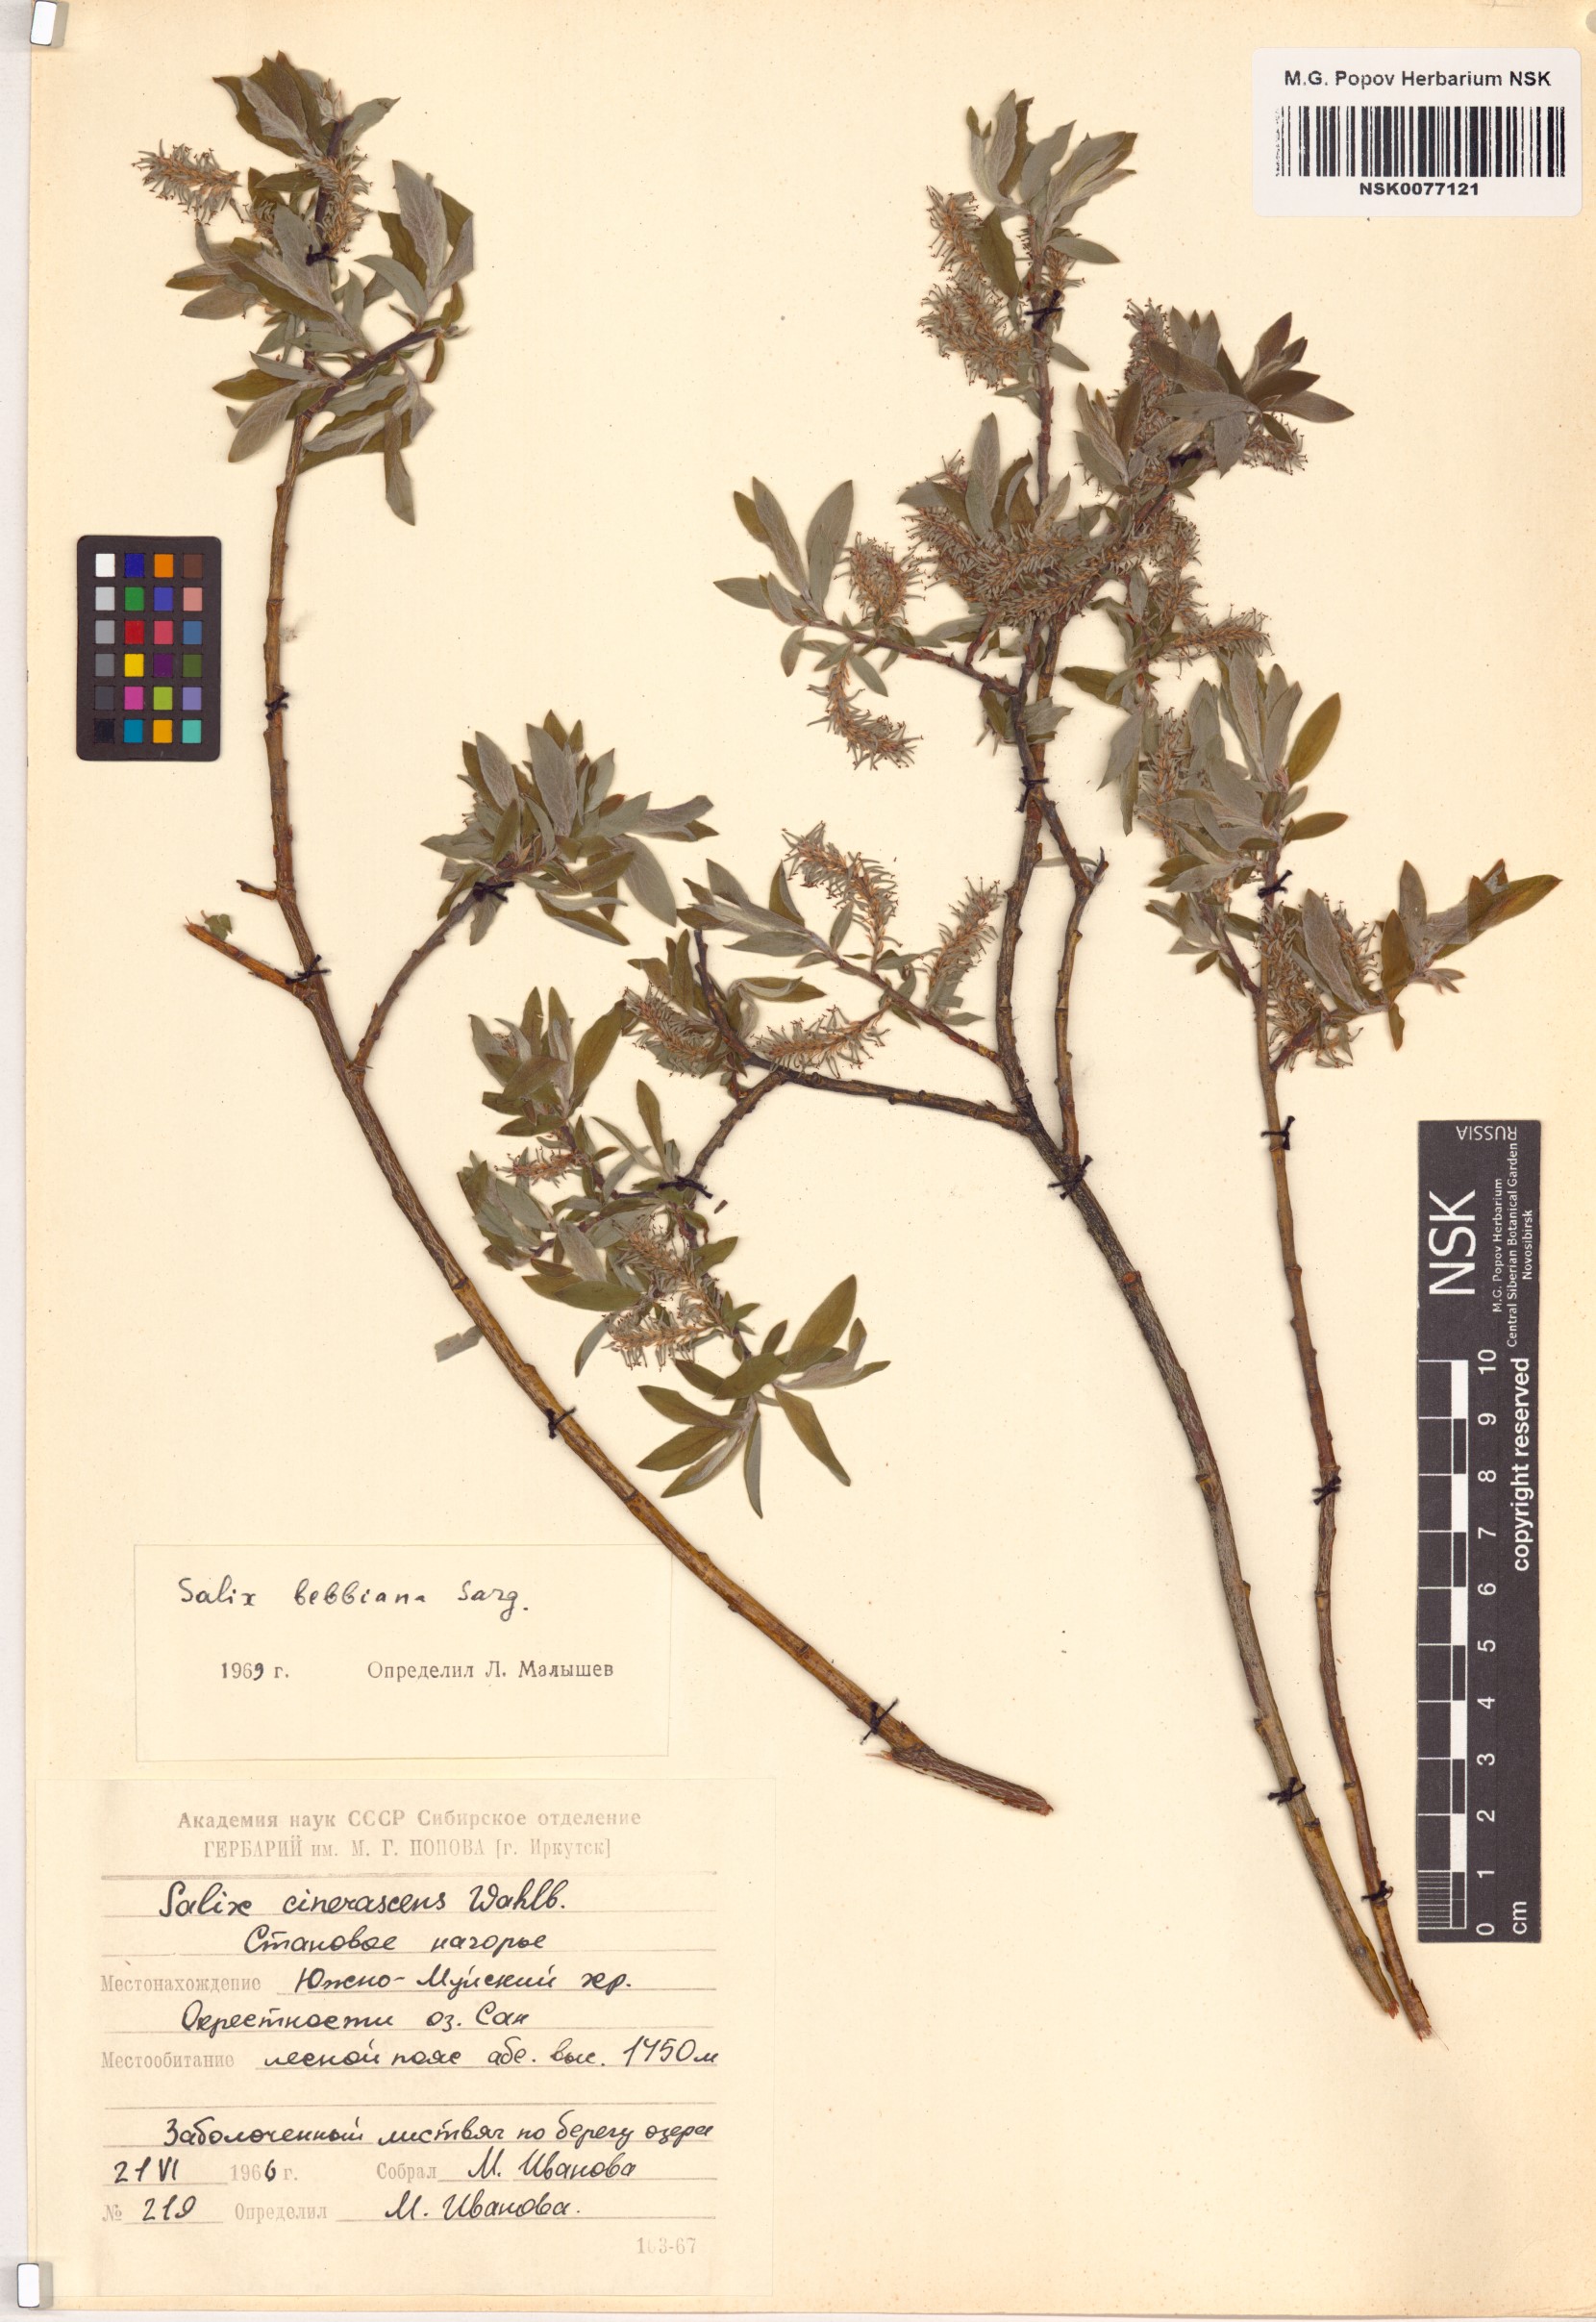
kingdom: Plantae
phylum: Tracheophyta
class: Magnoliopsida
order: Malpighiales
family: Salicaceae
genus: Salix
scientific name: Salix bebbiana
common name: Bebb's willow
